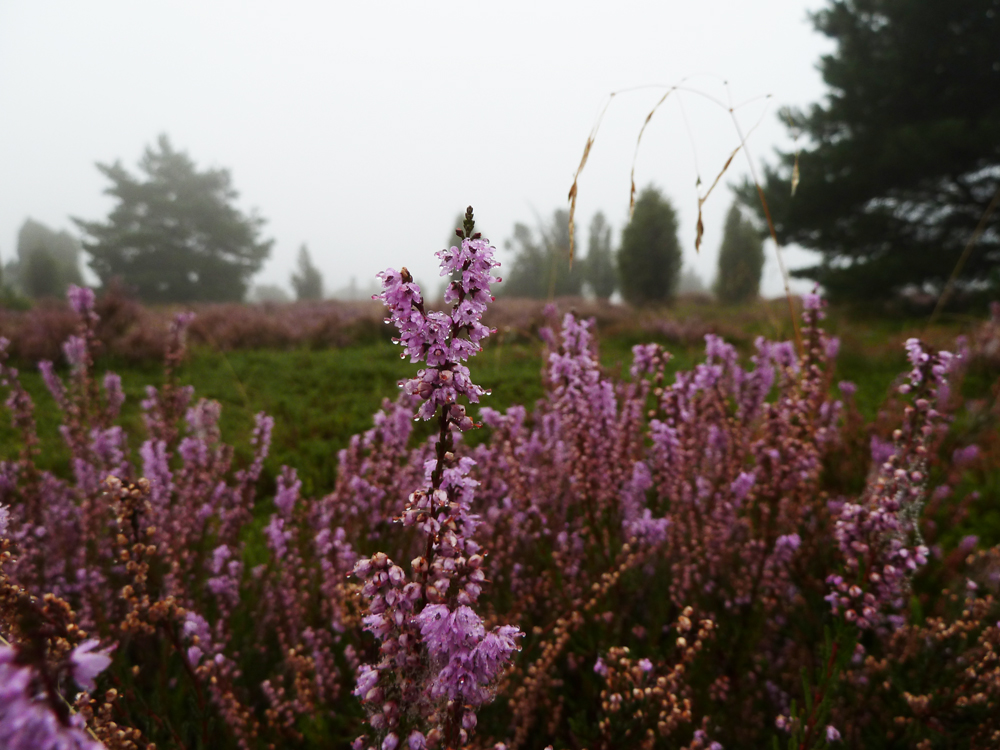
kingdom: Plantae
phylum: Tracheophyta
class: Magnoliopsida
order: Ericales
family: Ericaceae
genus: Calluna
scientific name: Calluna vulgaris
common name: Heather
